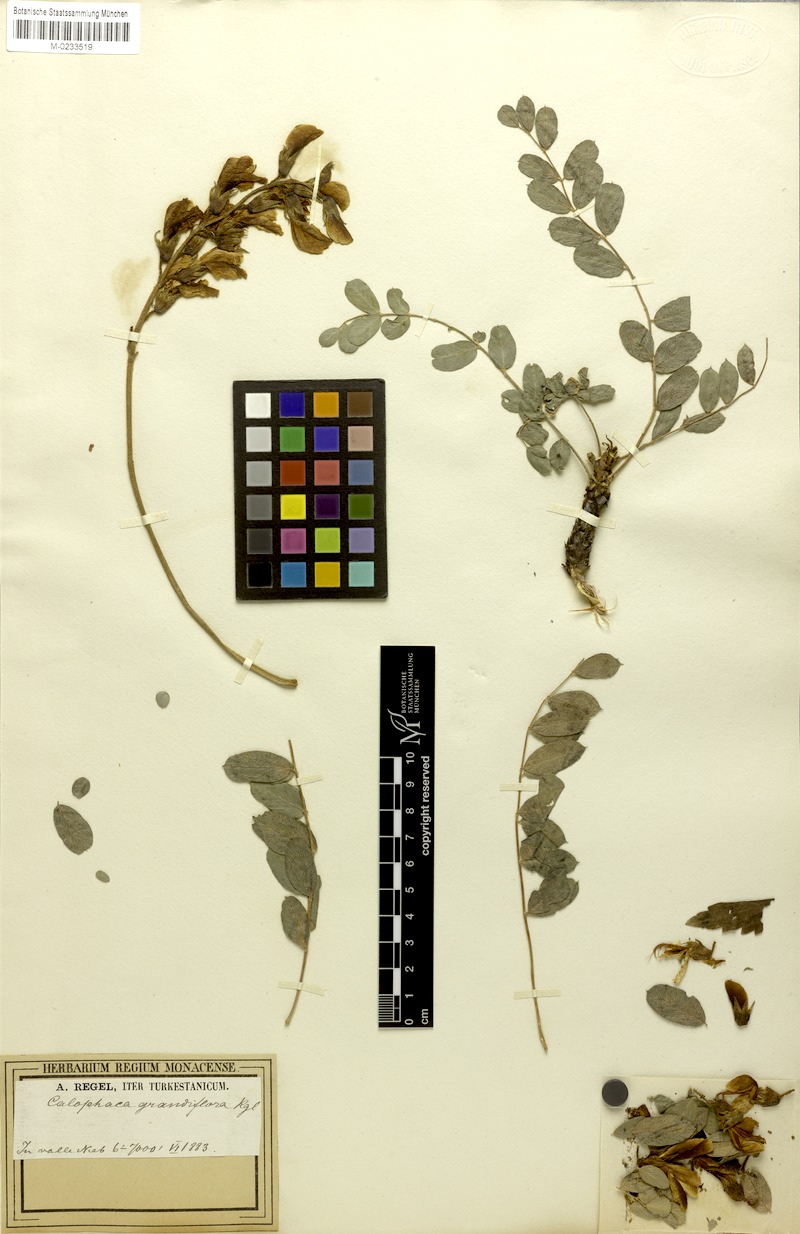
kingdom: Plantae
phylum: Tracheophyta
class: Magnoliopsida
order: Fabales
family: Fabaceae
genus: Calophaca
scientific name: Calophaca grandiflora
